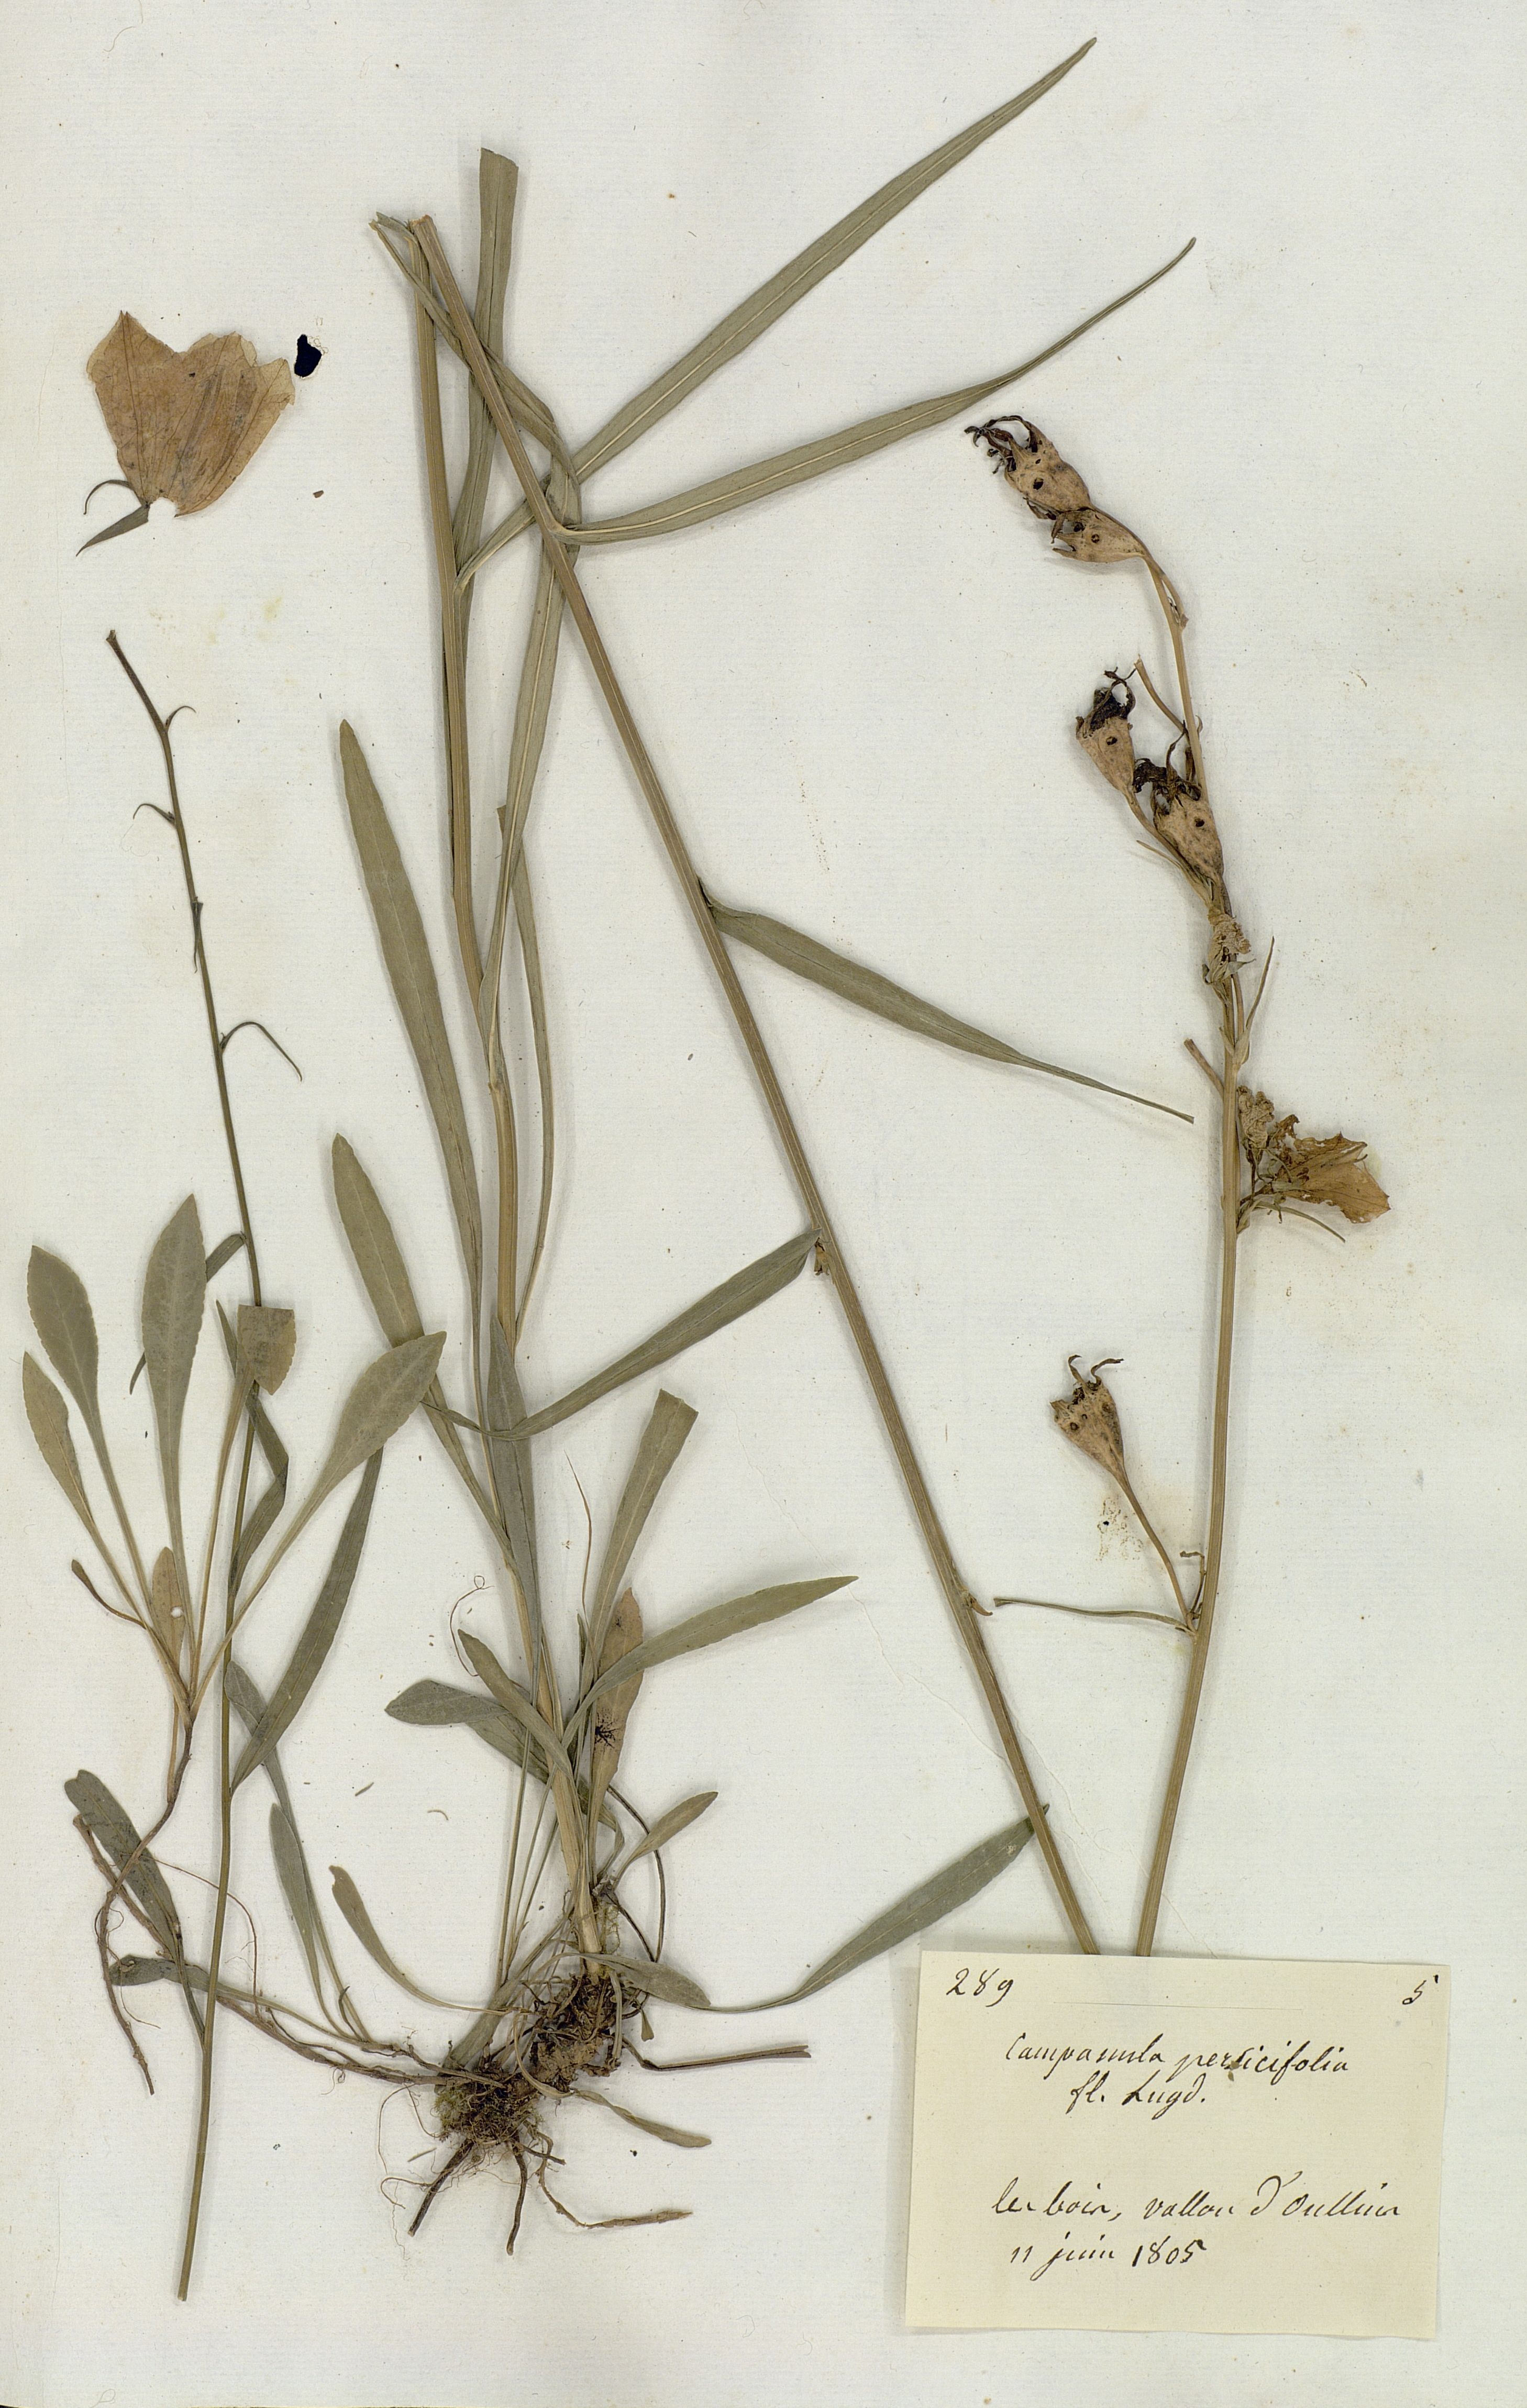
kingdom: Plantae
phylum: Tracheophyta
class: Magnoliopsida
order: Asterales
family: Campanulaceae
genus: Campanula
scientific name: Campanula persicifolia
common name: Peach-leaved bellflower
